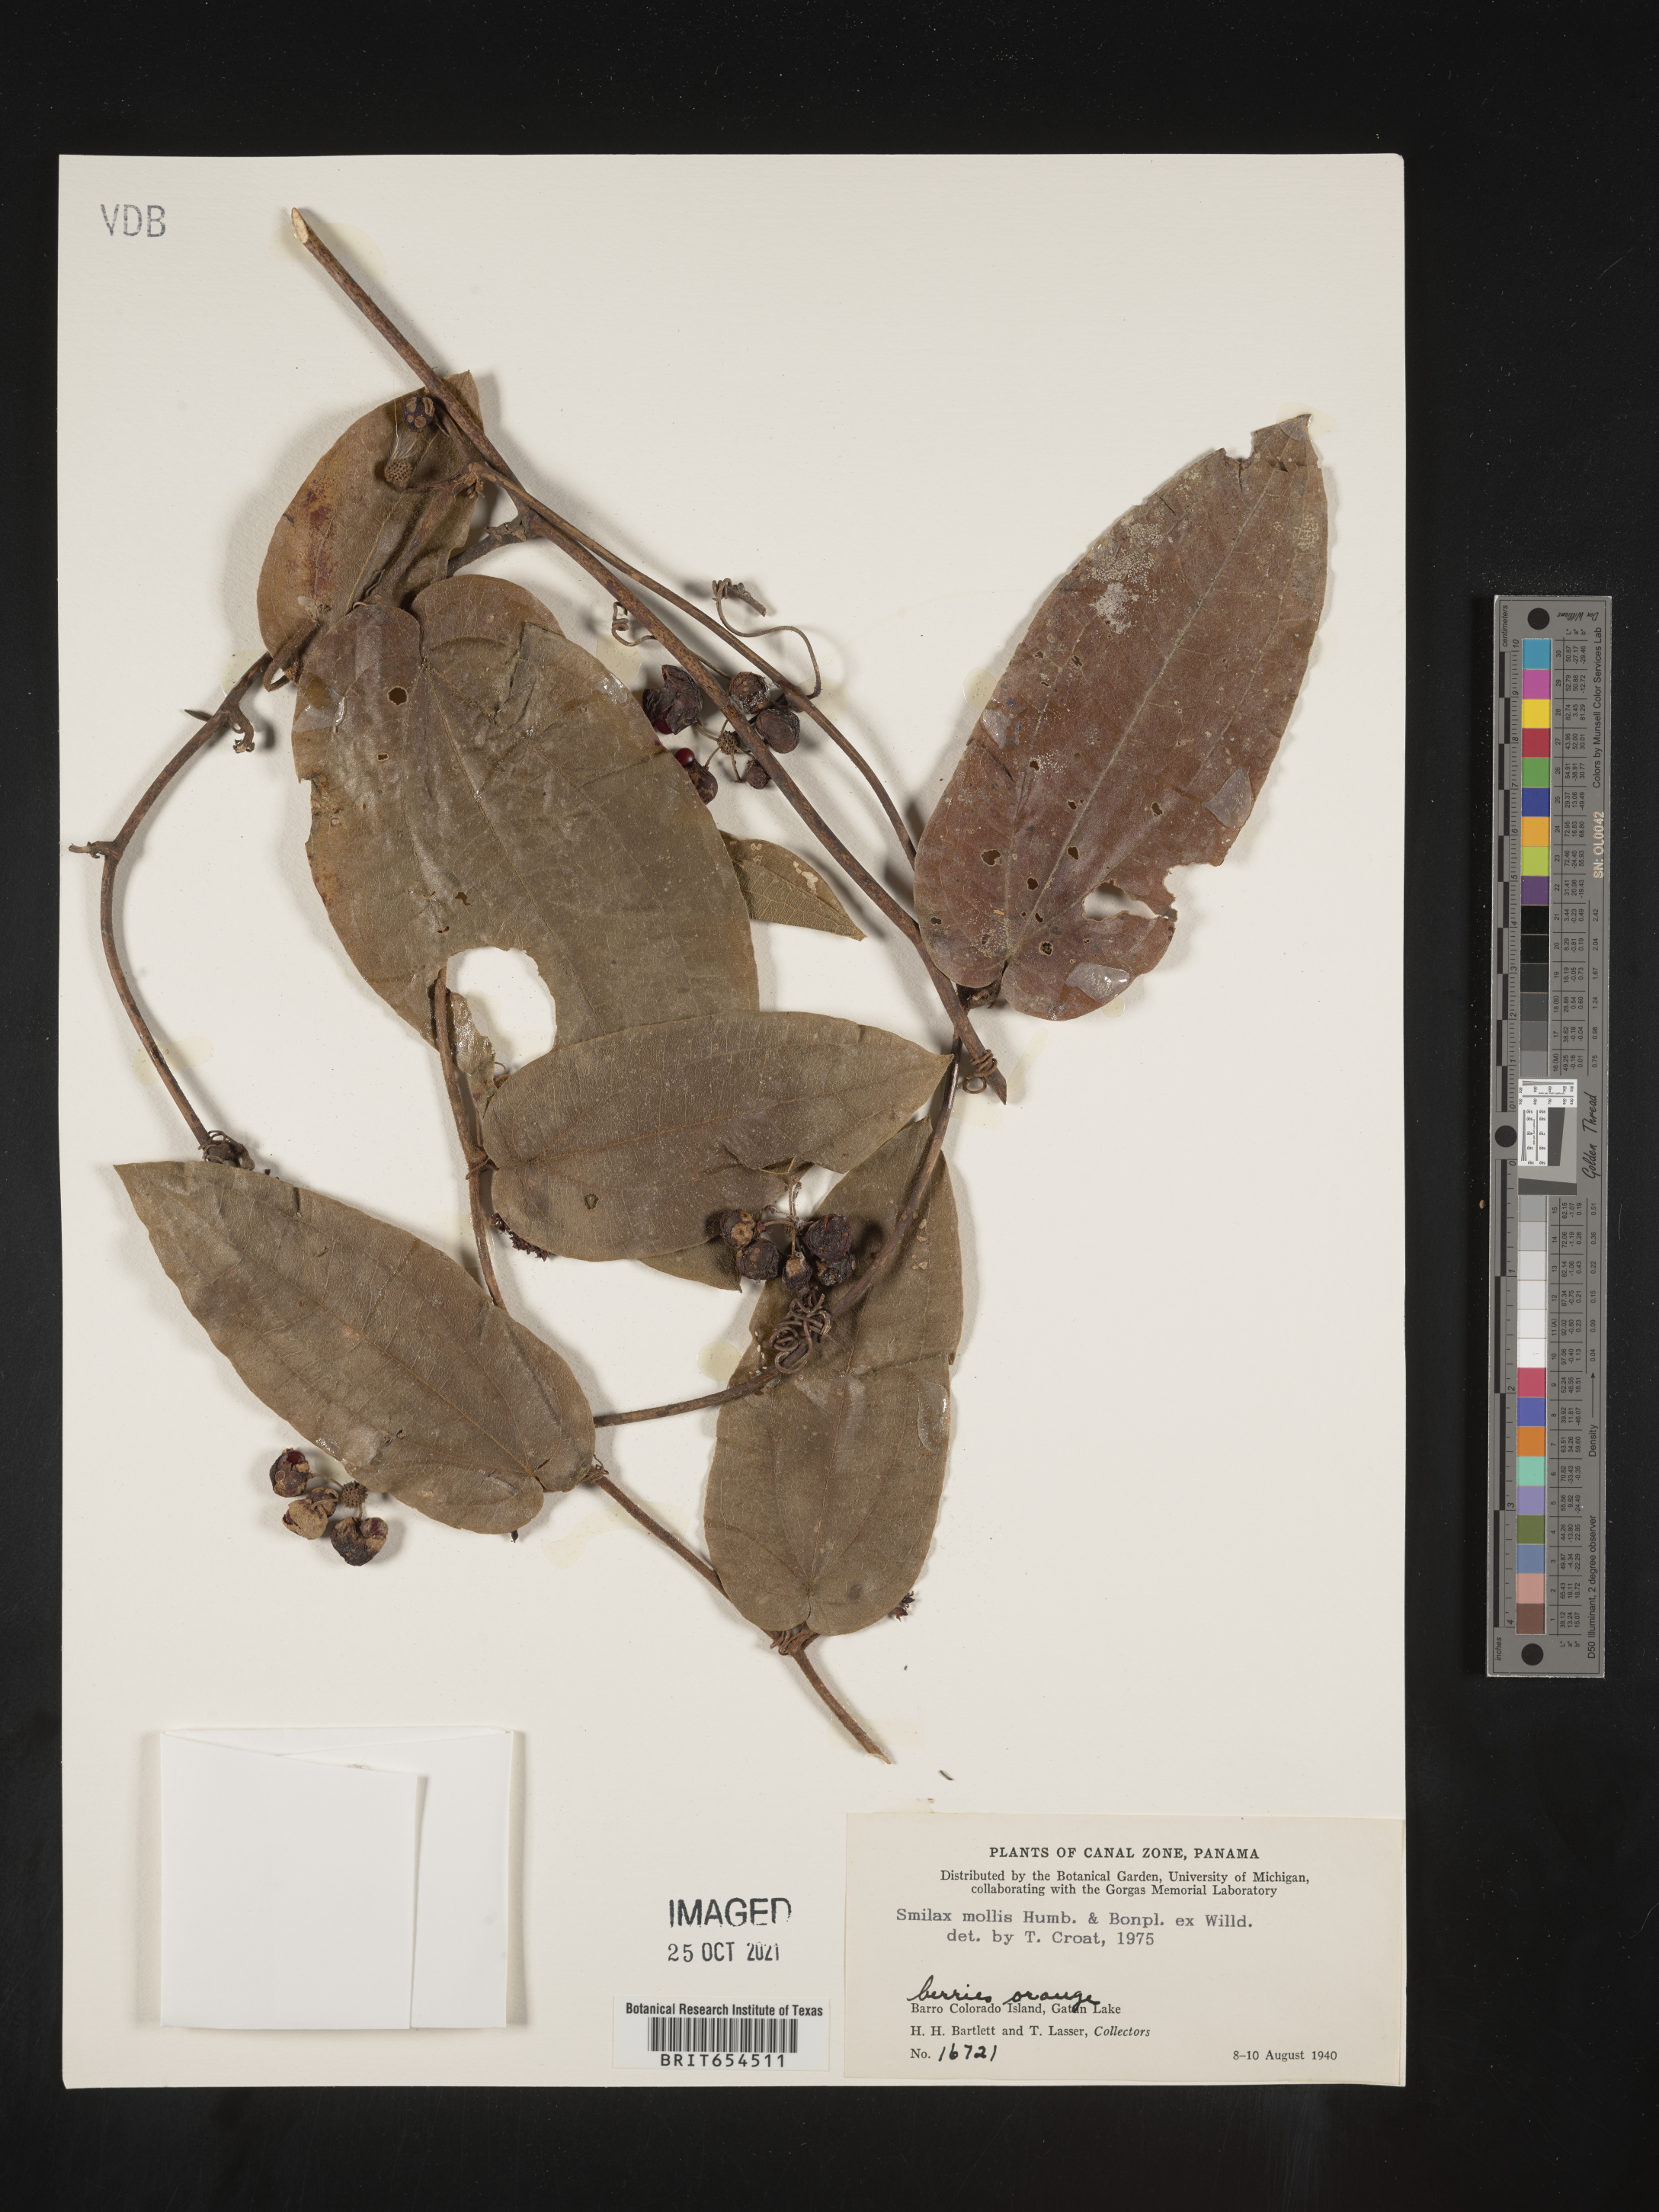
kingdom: Plantae
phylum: Tracheophyta
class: Liliopsida
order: Liliales
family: Smilacaceae
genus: Smilax
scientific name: Smilax
